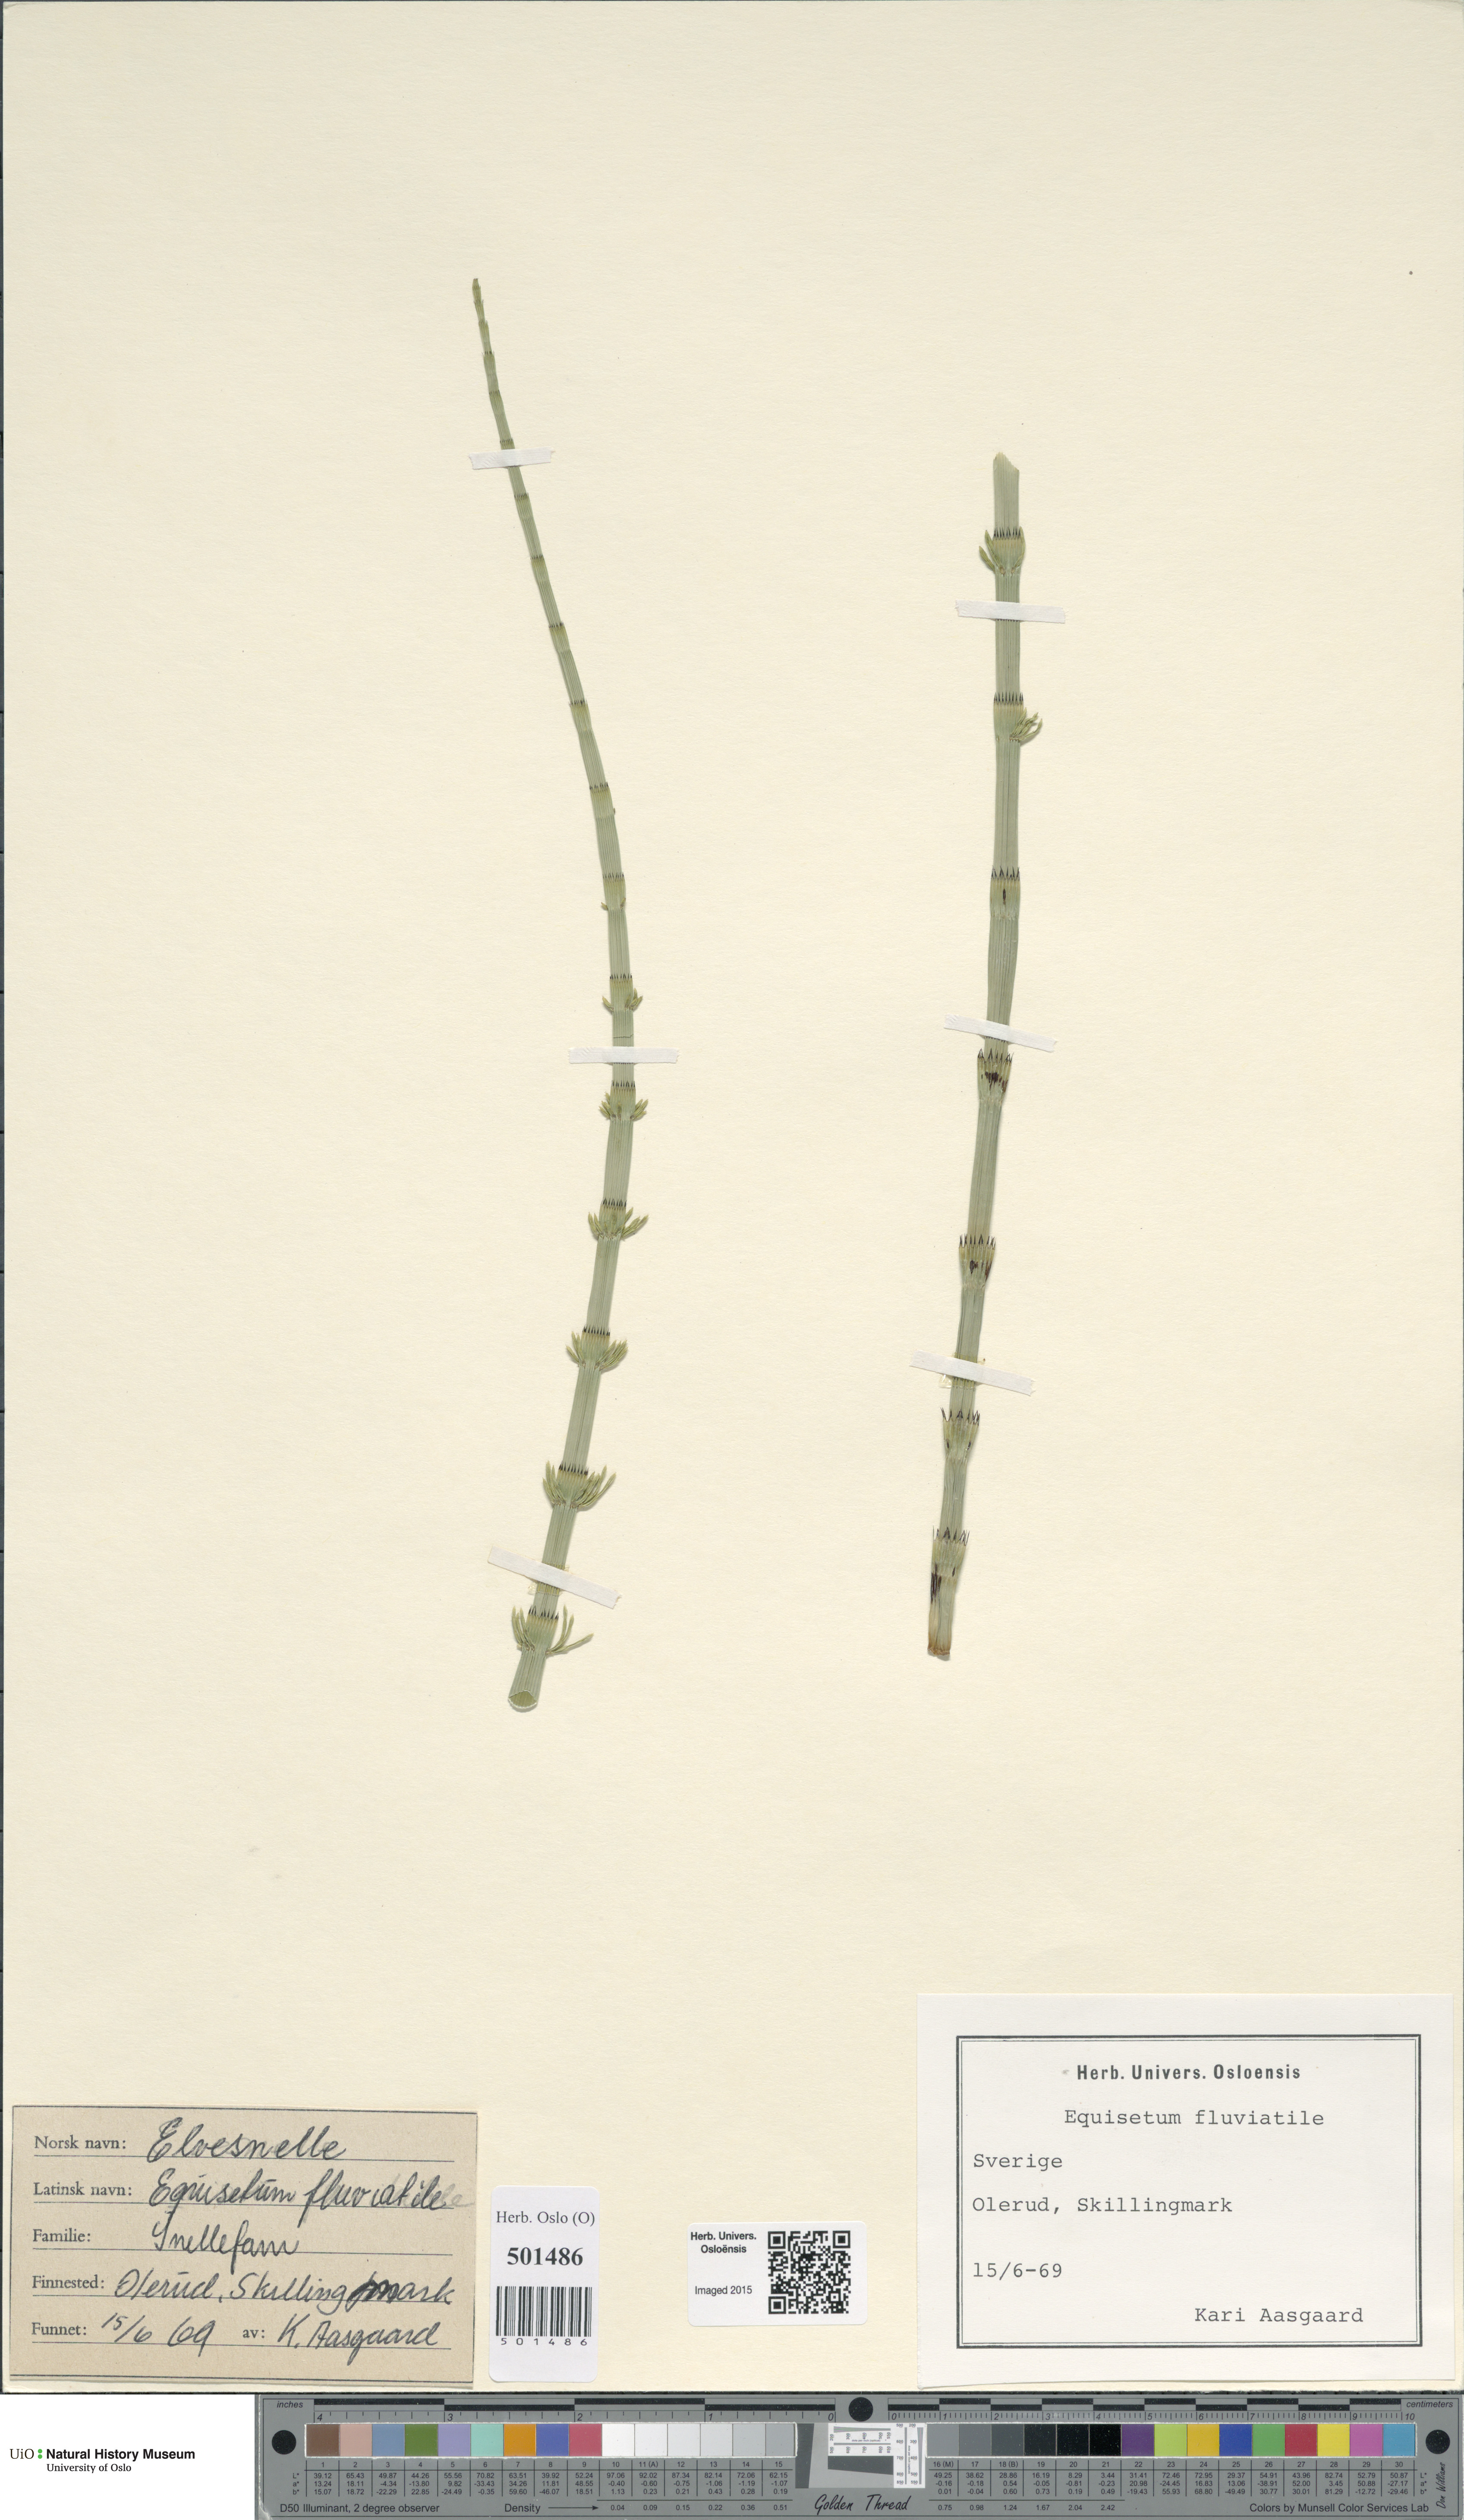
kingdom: Plantae
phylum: Tracheophyta
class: Polypodiopsida
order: Equisetales
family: Equisetaceae
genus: Equisetum
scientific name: Equisetum fluviatile
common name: Water horsetail
